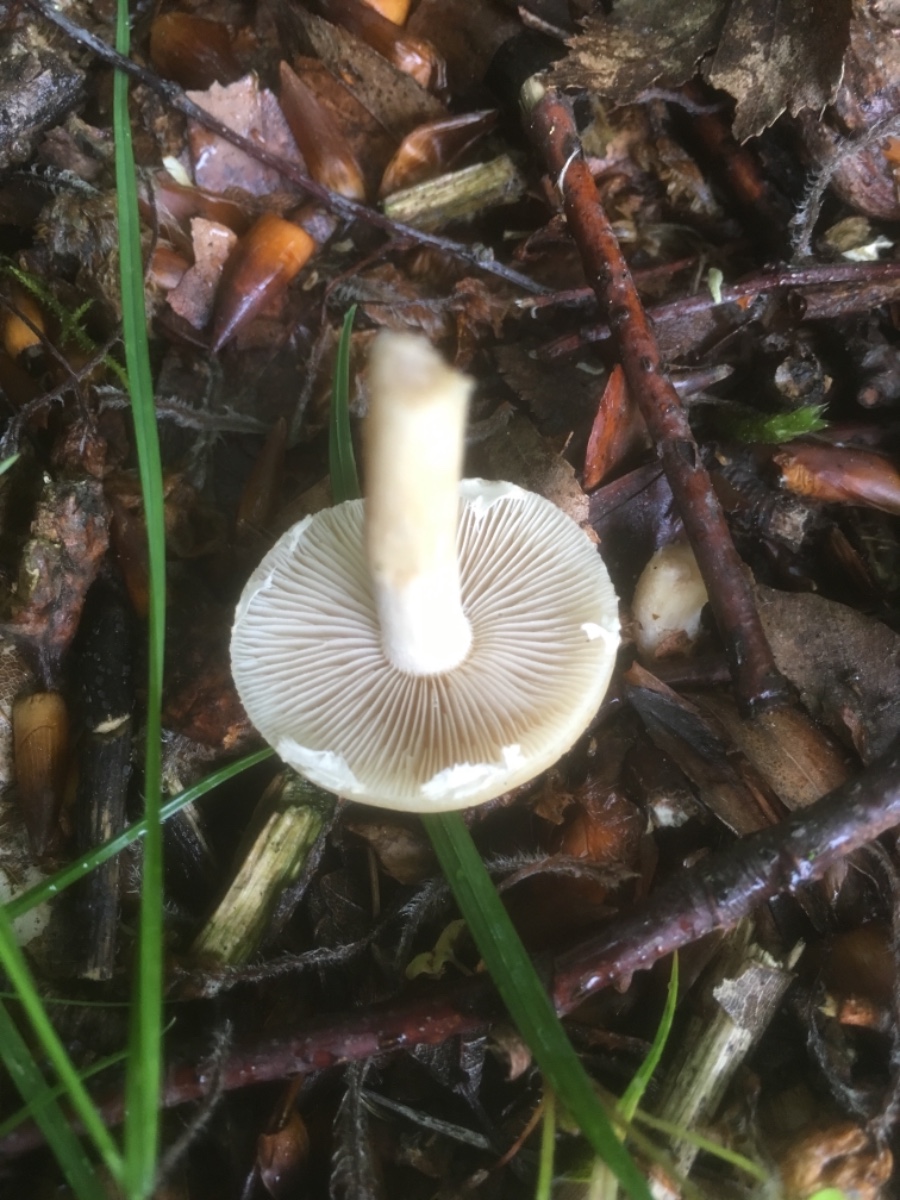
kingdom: Fungi
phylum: Basidiomycota
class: Agaricomycetes
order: Agaricales
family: Strophariaceae
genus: Agrocybe
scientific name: Agrocybe praecox
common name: tidlig agerhat
